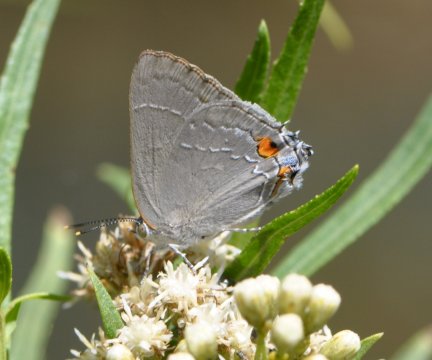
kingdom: Animalia
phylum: Arthropoda
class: Insecta
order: Lepidoptera
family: Lycaenidae
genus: Thecla
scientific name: Thecla marius
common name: Marius Hairstreak
